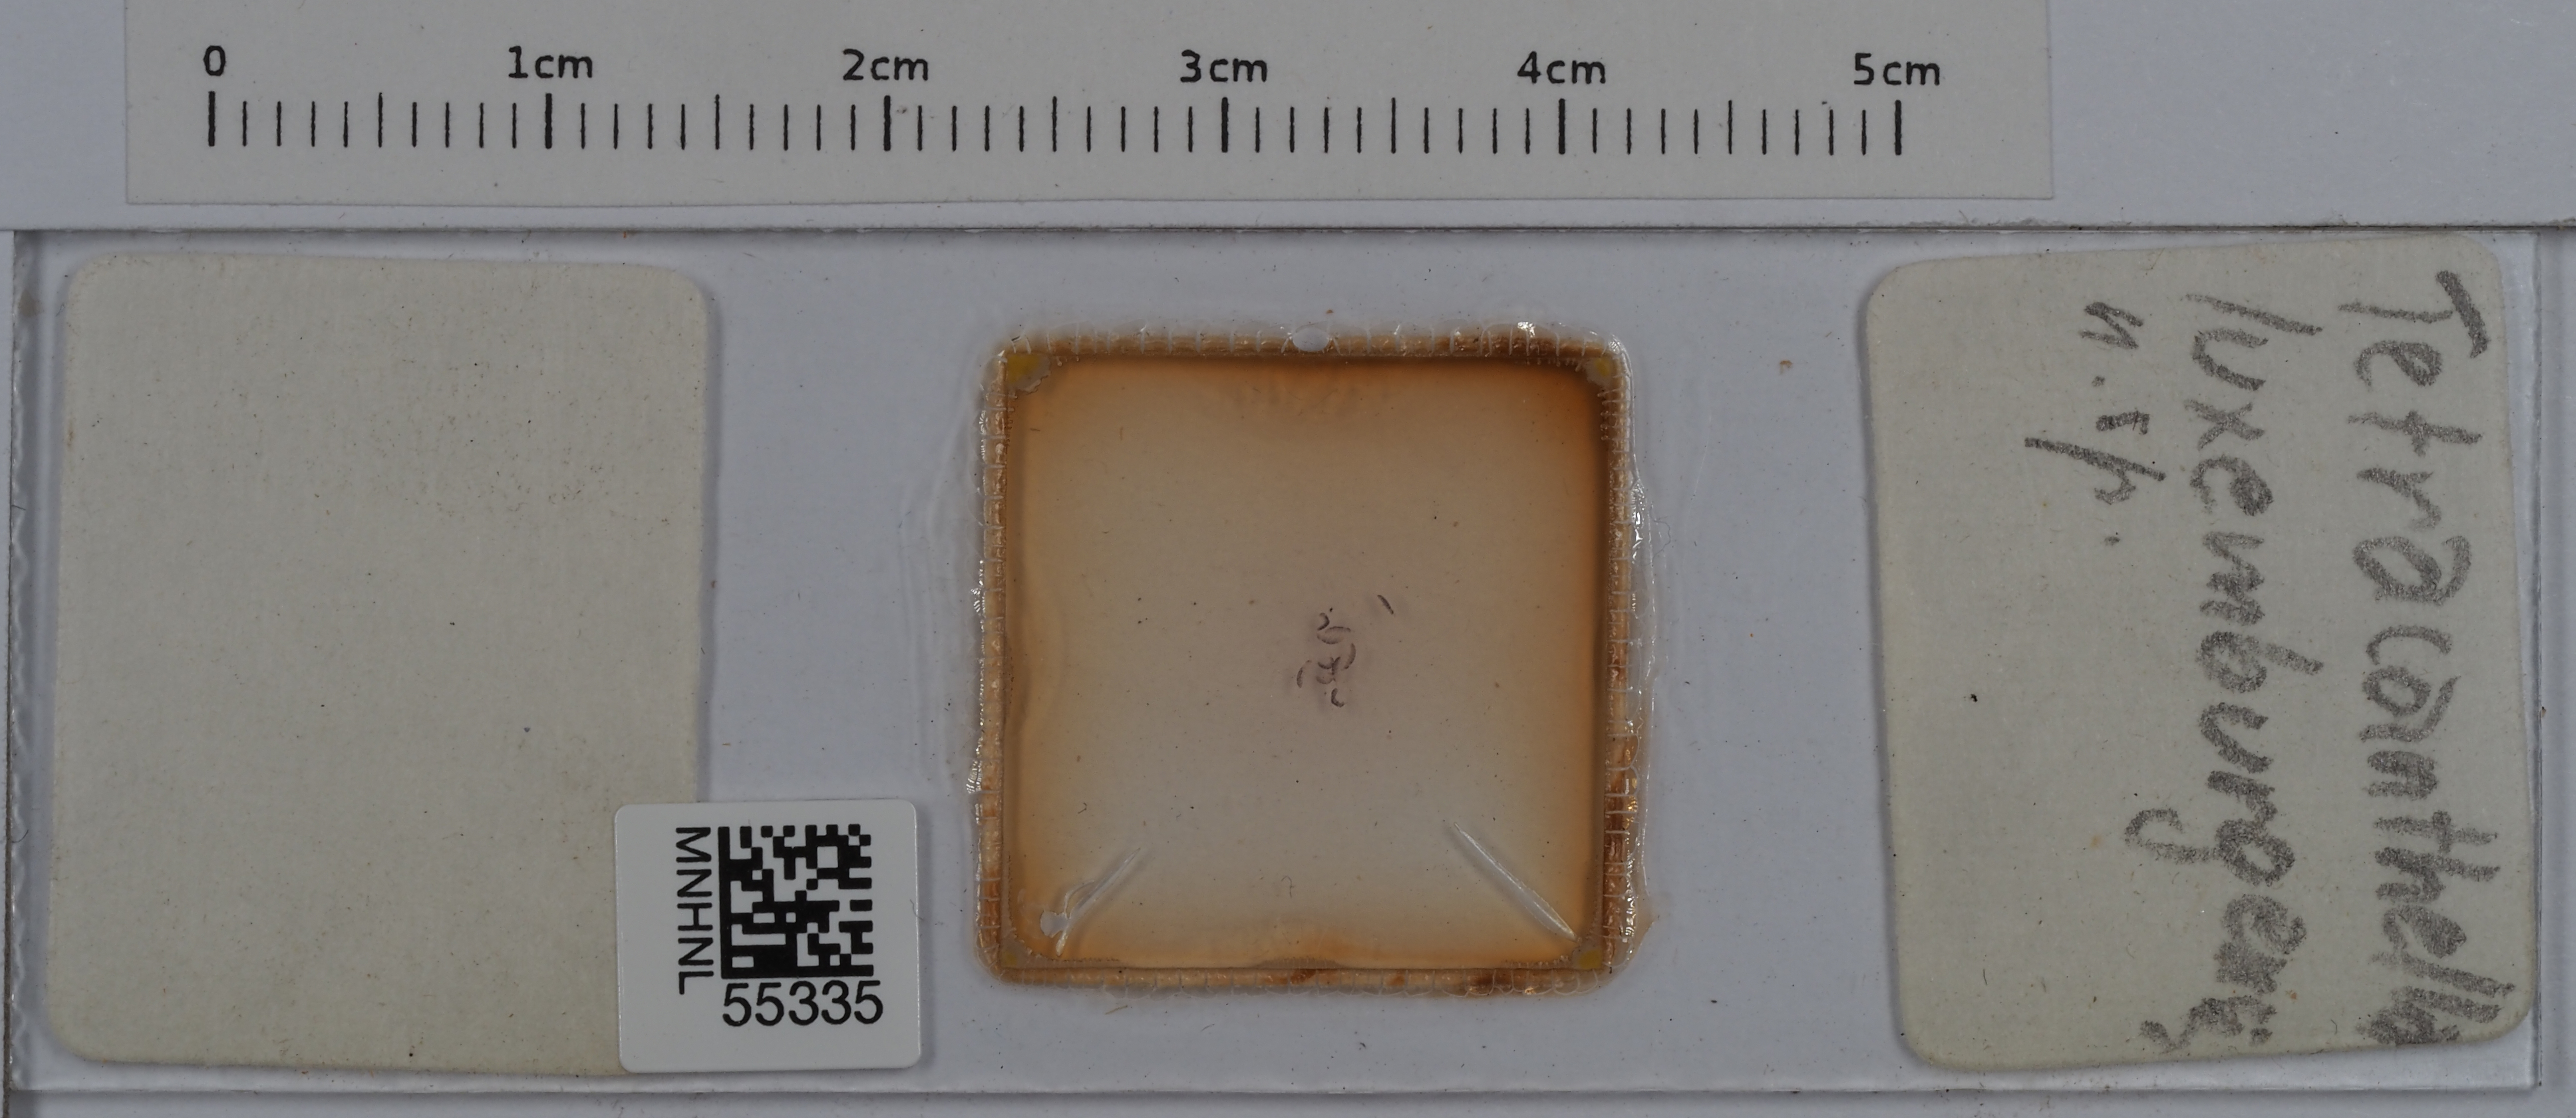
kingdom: Animalia
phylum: Arthropoda
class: Collembola
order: Entomobryomorpha
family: Isotomidae
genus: Tetracanthella
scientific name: Tetracanthella luxemburgensis
